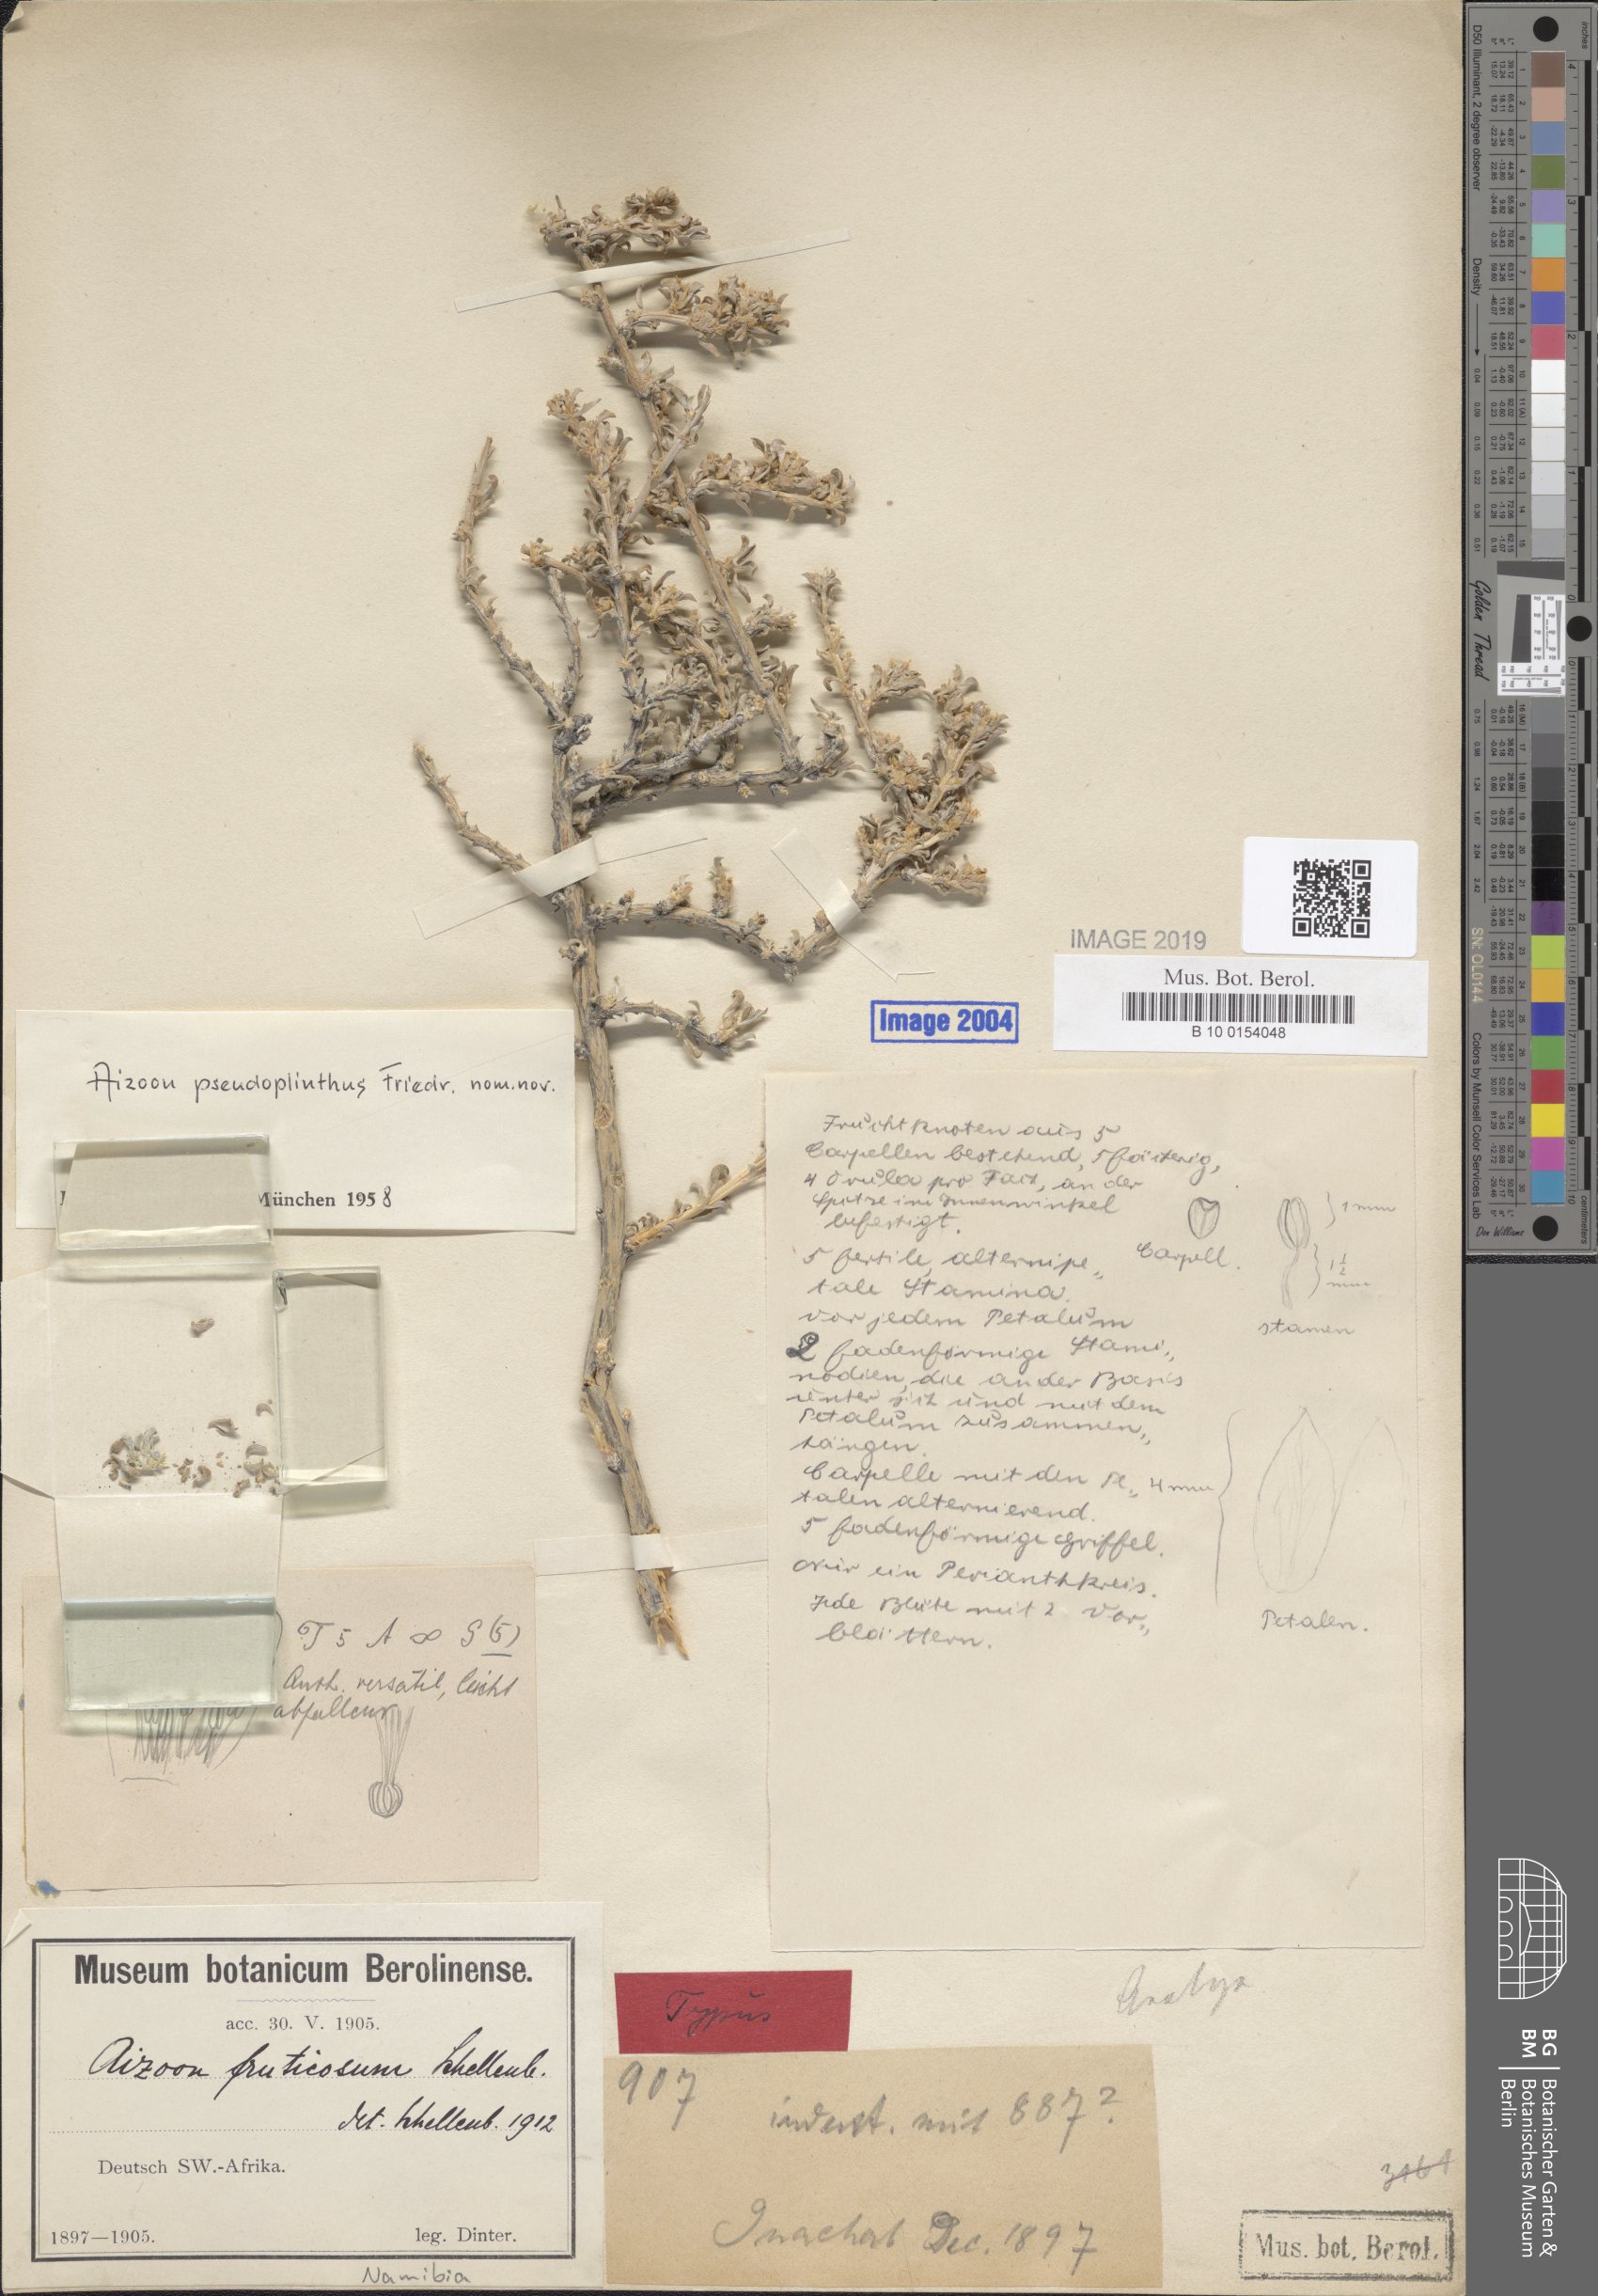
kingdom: Plantae
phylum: Tracheophyta
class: Magnoliopsida
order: Caryophyllales
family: Aizoaceae
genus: Aizoon
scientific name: Aizoon
